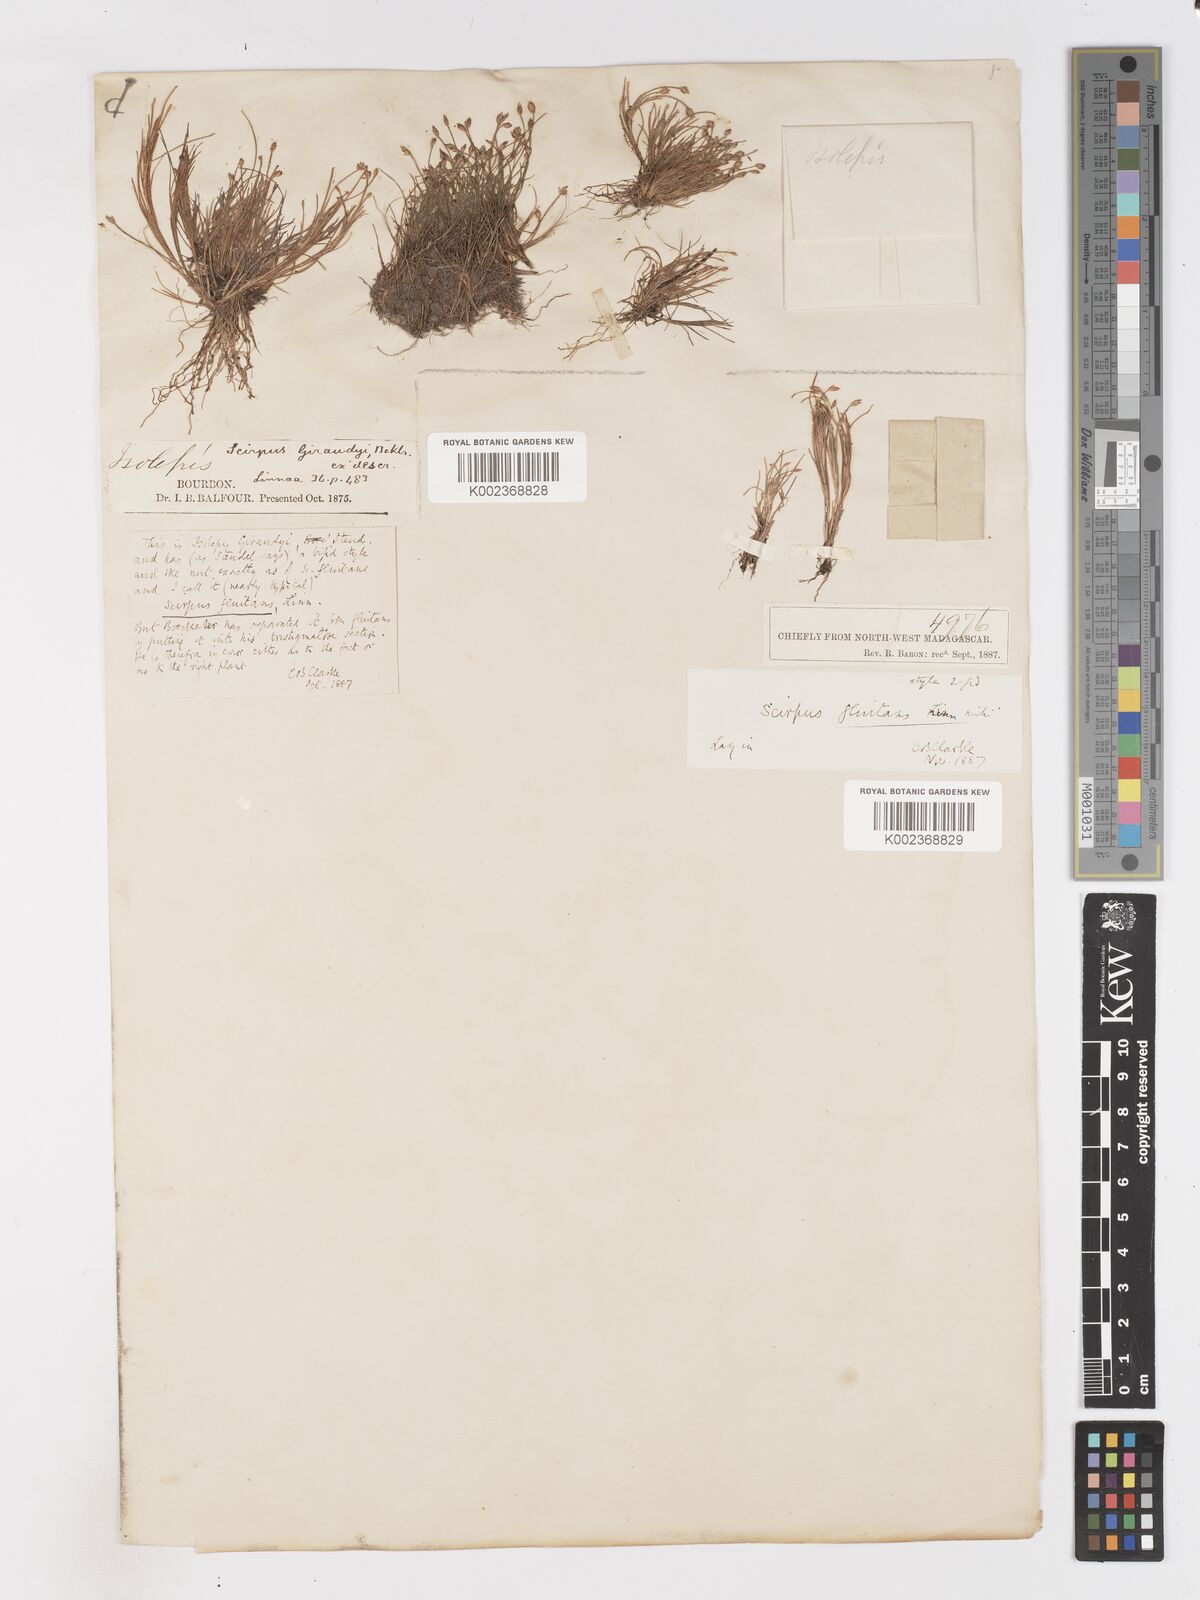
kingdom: Plantae
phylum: Tracheophyta
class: Liliopsida
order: Poales
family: Cyperaceae
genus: Isolepis
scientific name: Isolepis fluitans
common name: Floating club-rush
